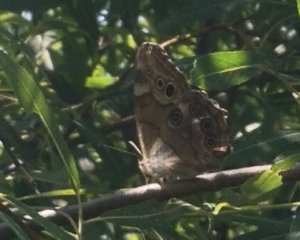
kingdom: Animalia
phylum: Arthropoda
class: Insecta
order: Lepidoptera
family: Nymphalidae
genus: Lethe
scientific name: Lethe anthedon
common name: Northern Pearly-Eye
